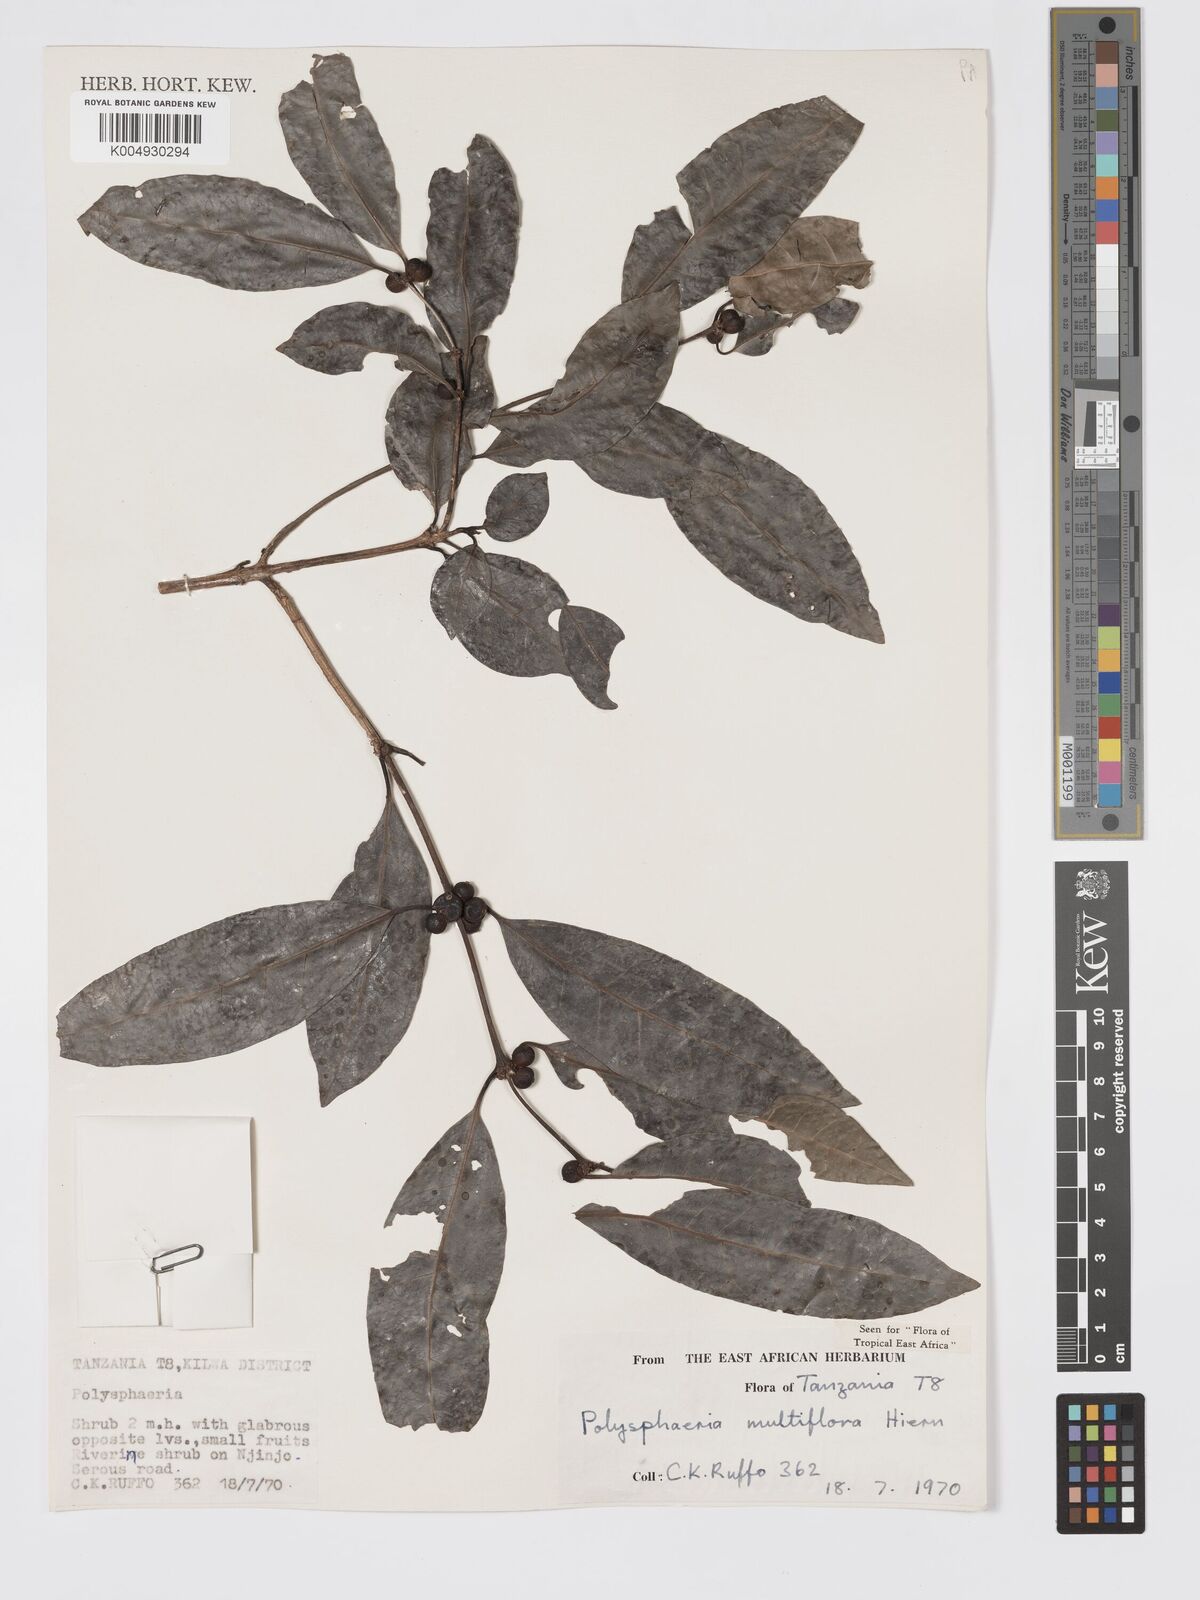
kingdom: Plantae
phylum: Tracheophyta
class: Magnoliopsida
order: Gentianales
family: Rubiaceae
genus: Polysphaeria
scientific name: Polysphaeria multiflora
